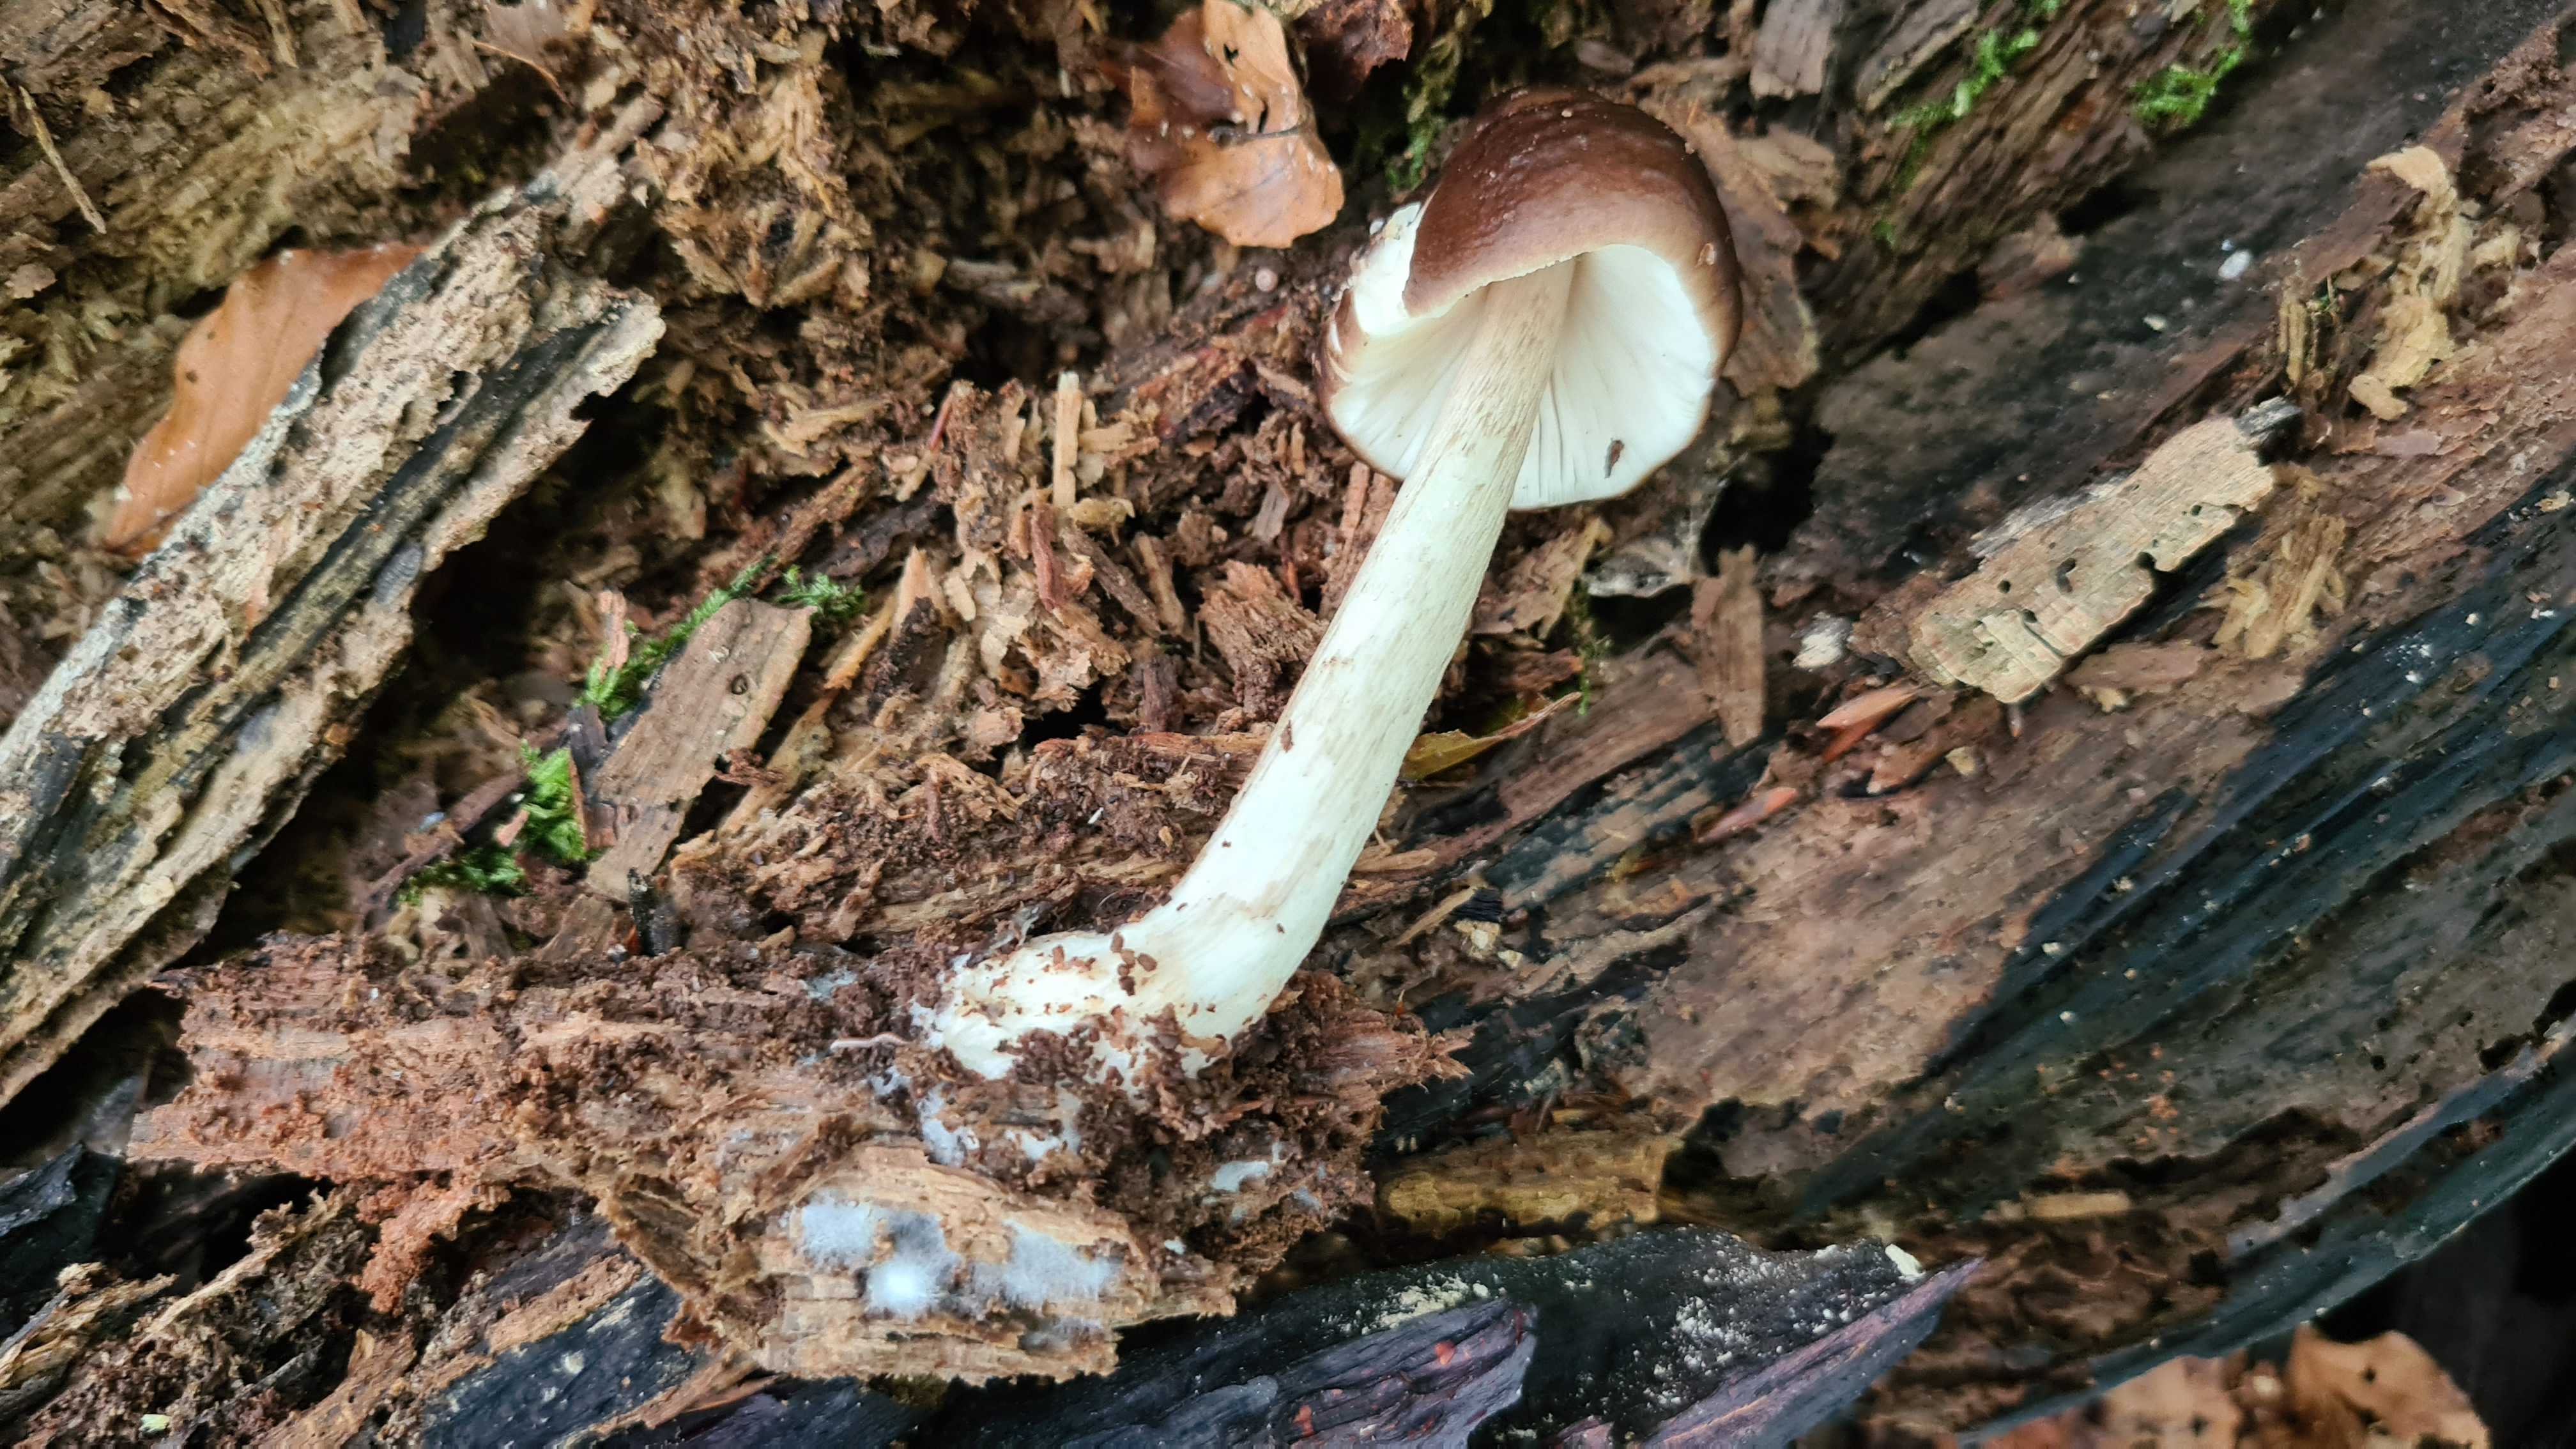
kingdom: Fungi
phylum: Basidiomycota
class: Agaricomycetes
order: Agaricales
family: Pluteaceae
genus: Pluteus
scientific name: Pluteus cervinus
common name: sodfarvet skærmhat
